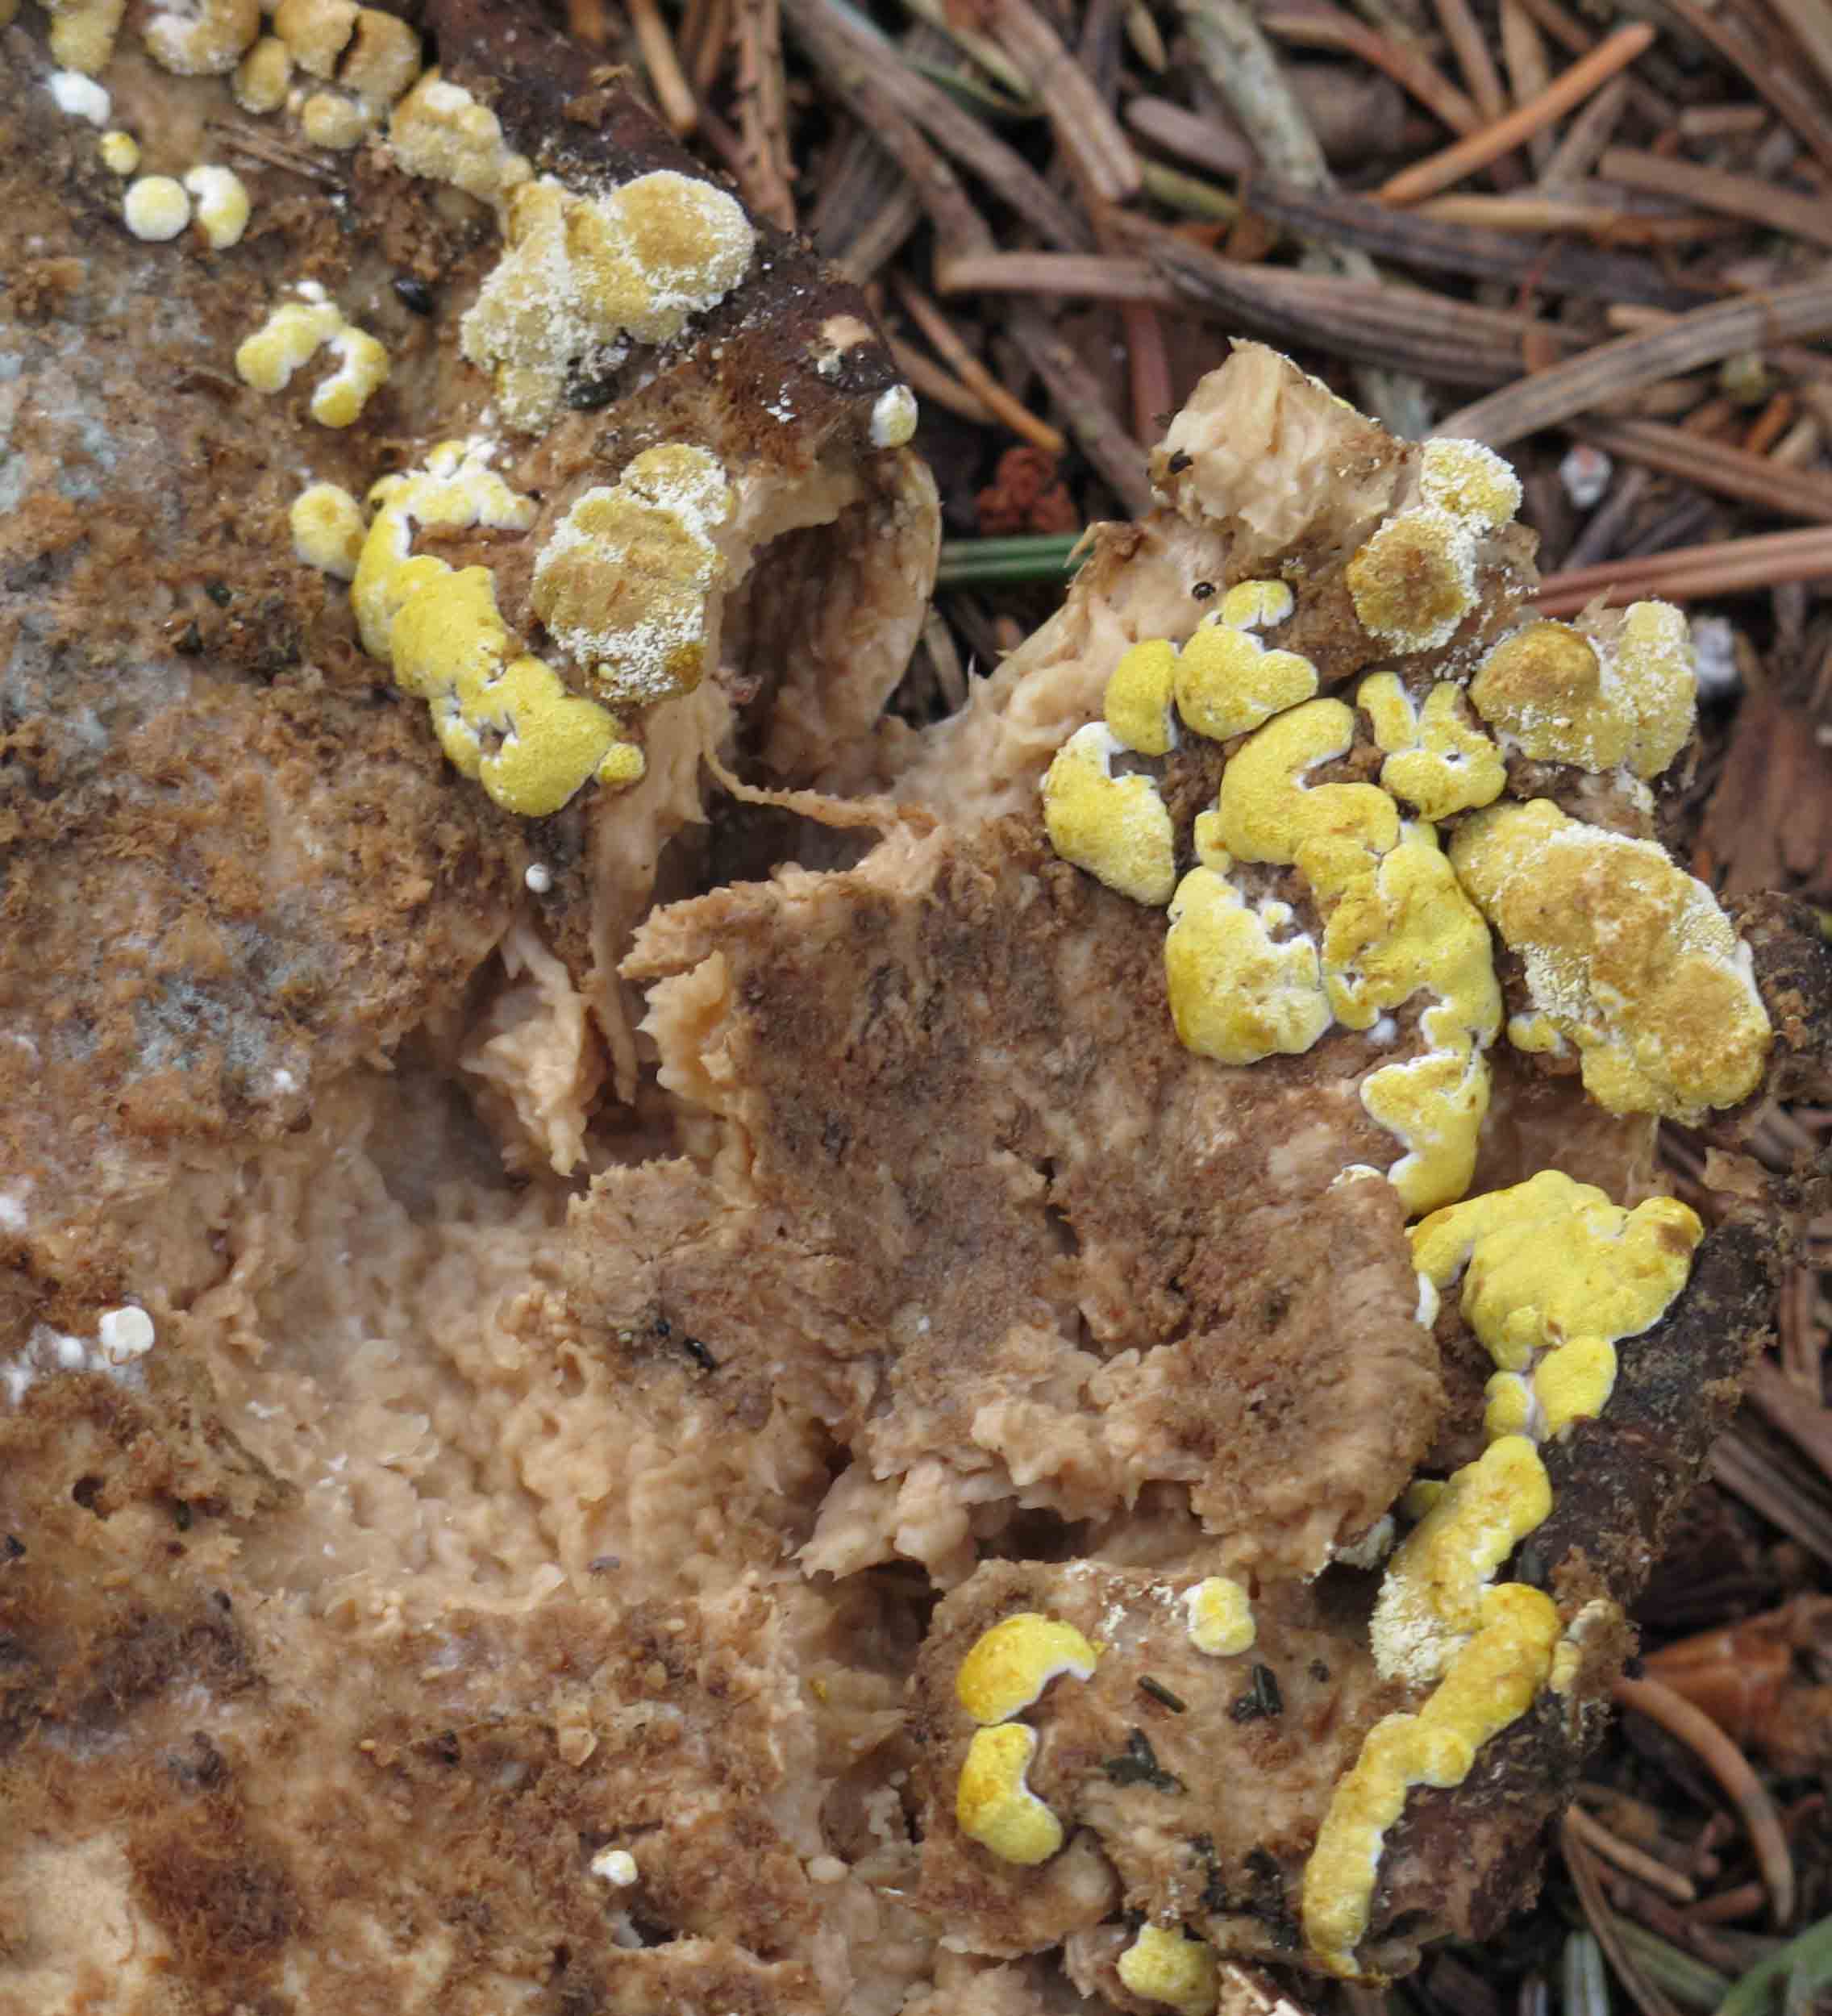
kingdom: Fungi
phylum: Ascomycota
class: Sordariomycetes
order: Hypocreales
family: Hypocreaceae
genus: Trichoderma
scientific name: Trichoderma pulvinatum
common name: snyltende kødkerne
